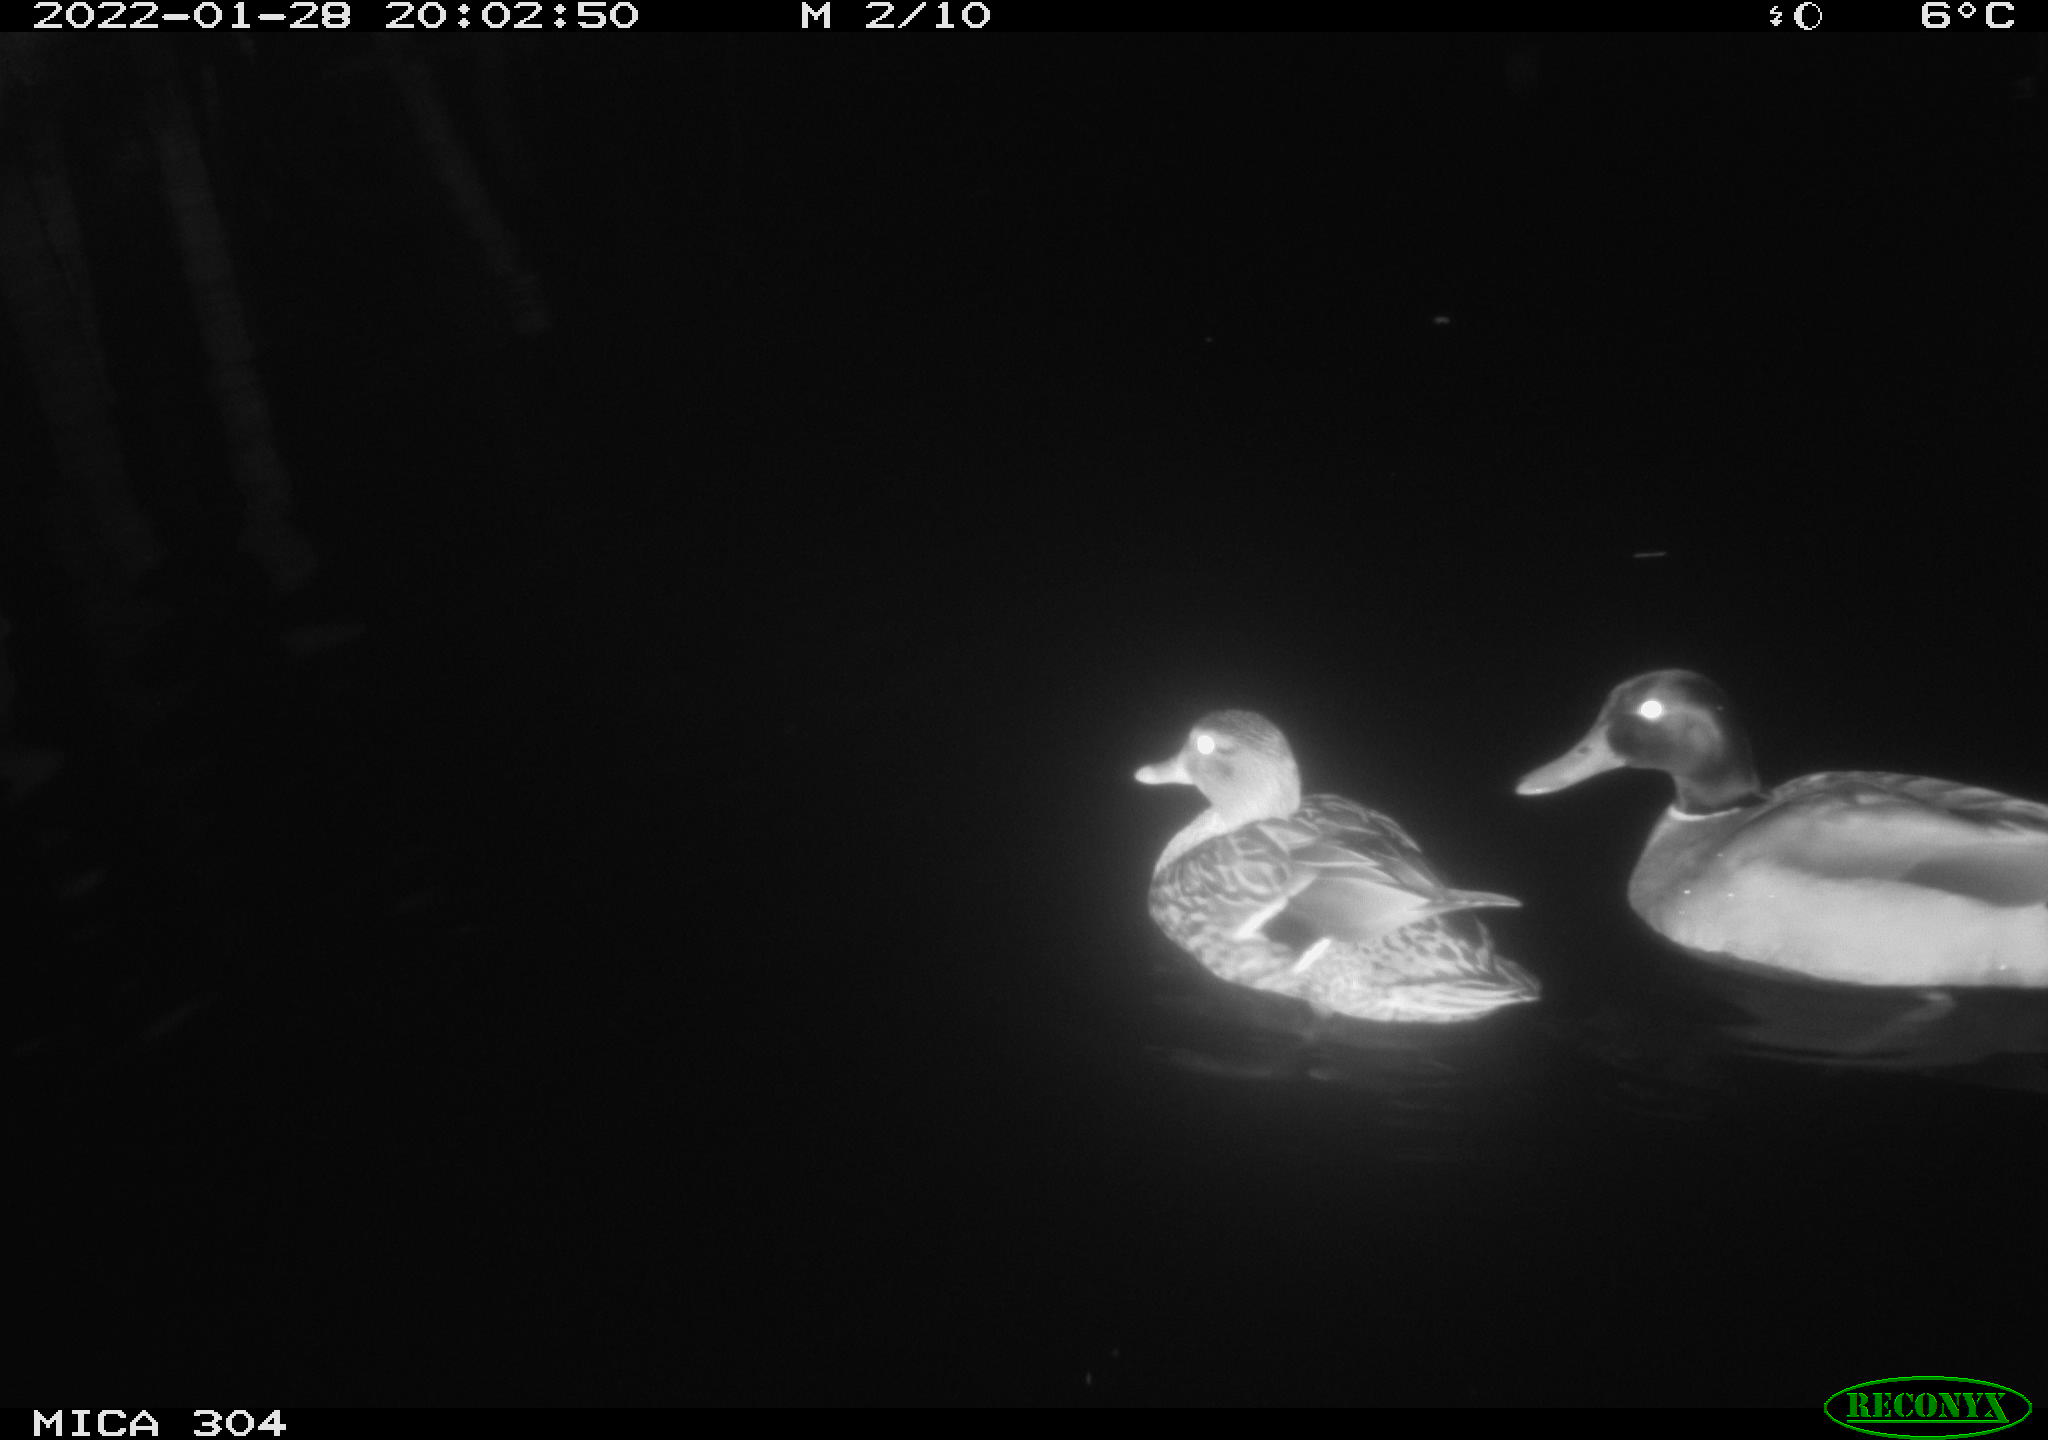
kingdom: Animalia
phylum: Chordata
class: Aves
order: Anseriformes
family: Anatidae
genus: Anas
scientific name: Anas
